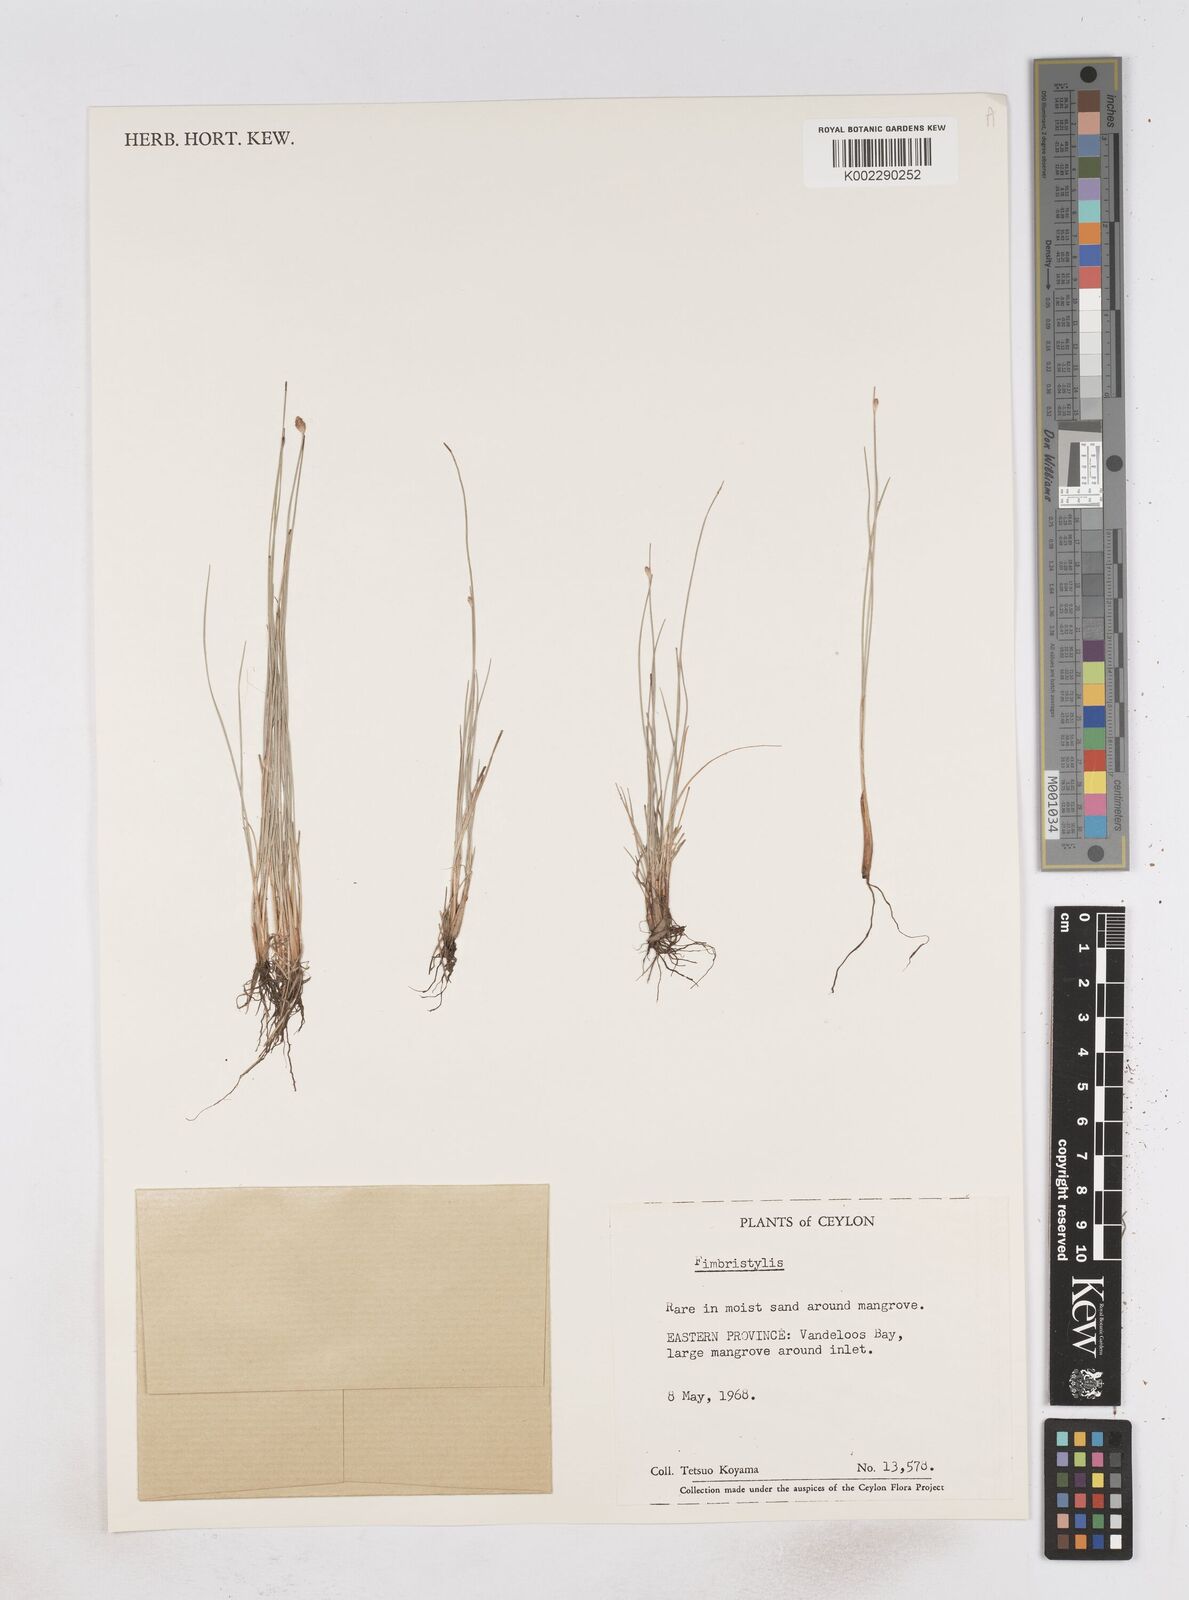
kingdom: Plantae
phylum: Tracheophyta
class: Liliopsida
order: Poales
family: Cyperaceae
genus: Fimbristylis
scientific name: Fimbristylis
